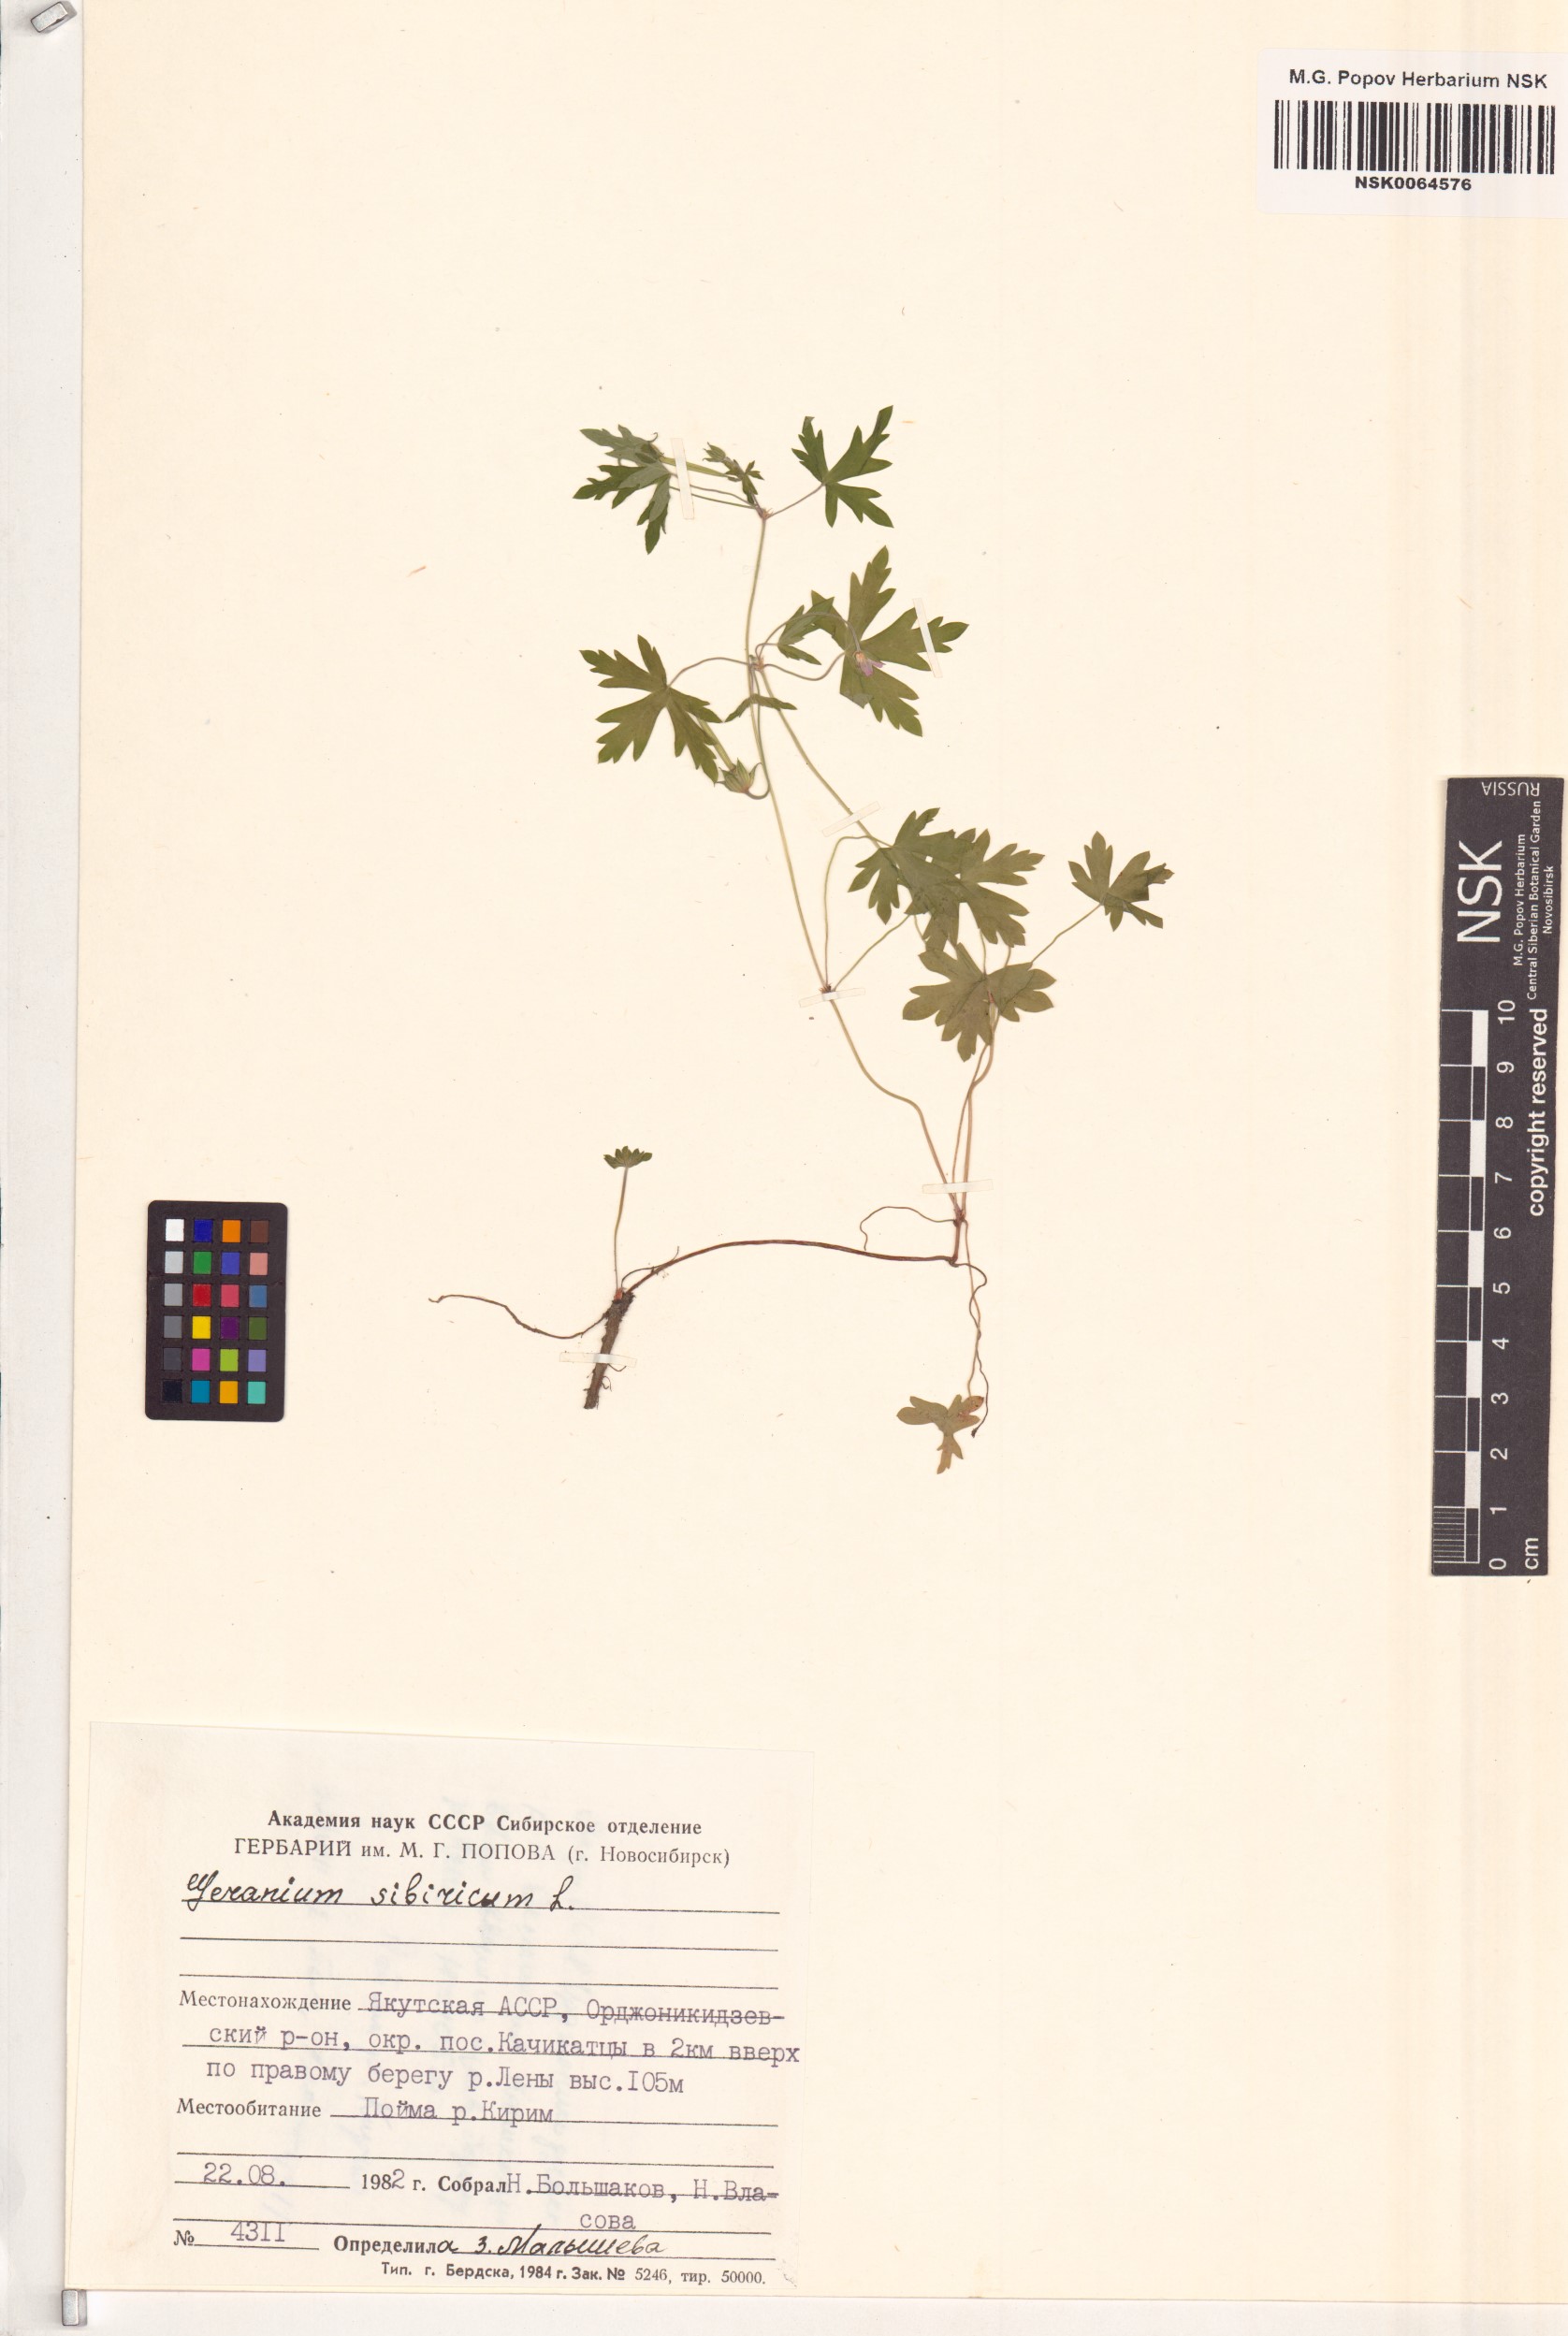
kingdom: Plantae
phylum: Tracheophyta
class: Magnoliopsida
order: Geraniales
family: Geraniaceae
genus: Geranium
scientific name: Geranium sibiricum
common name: Siberian crane's-bill
